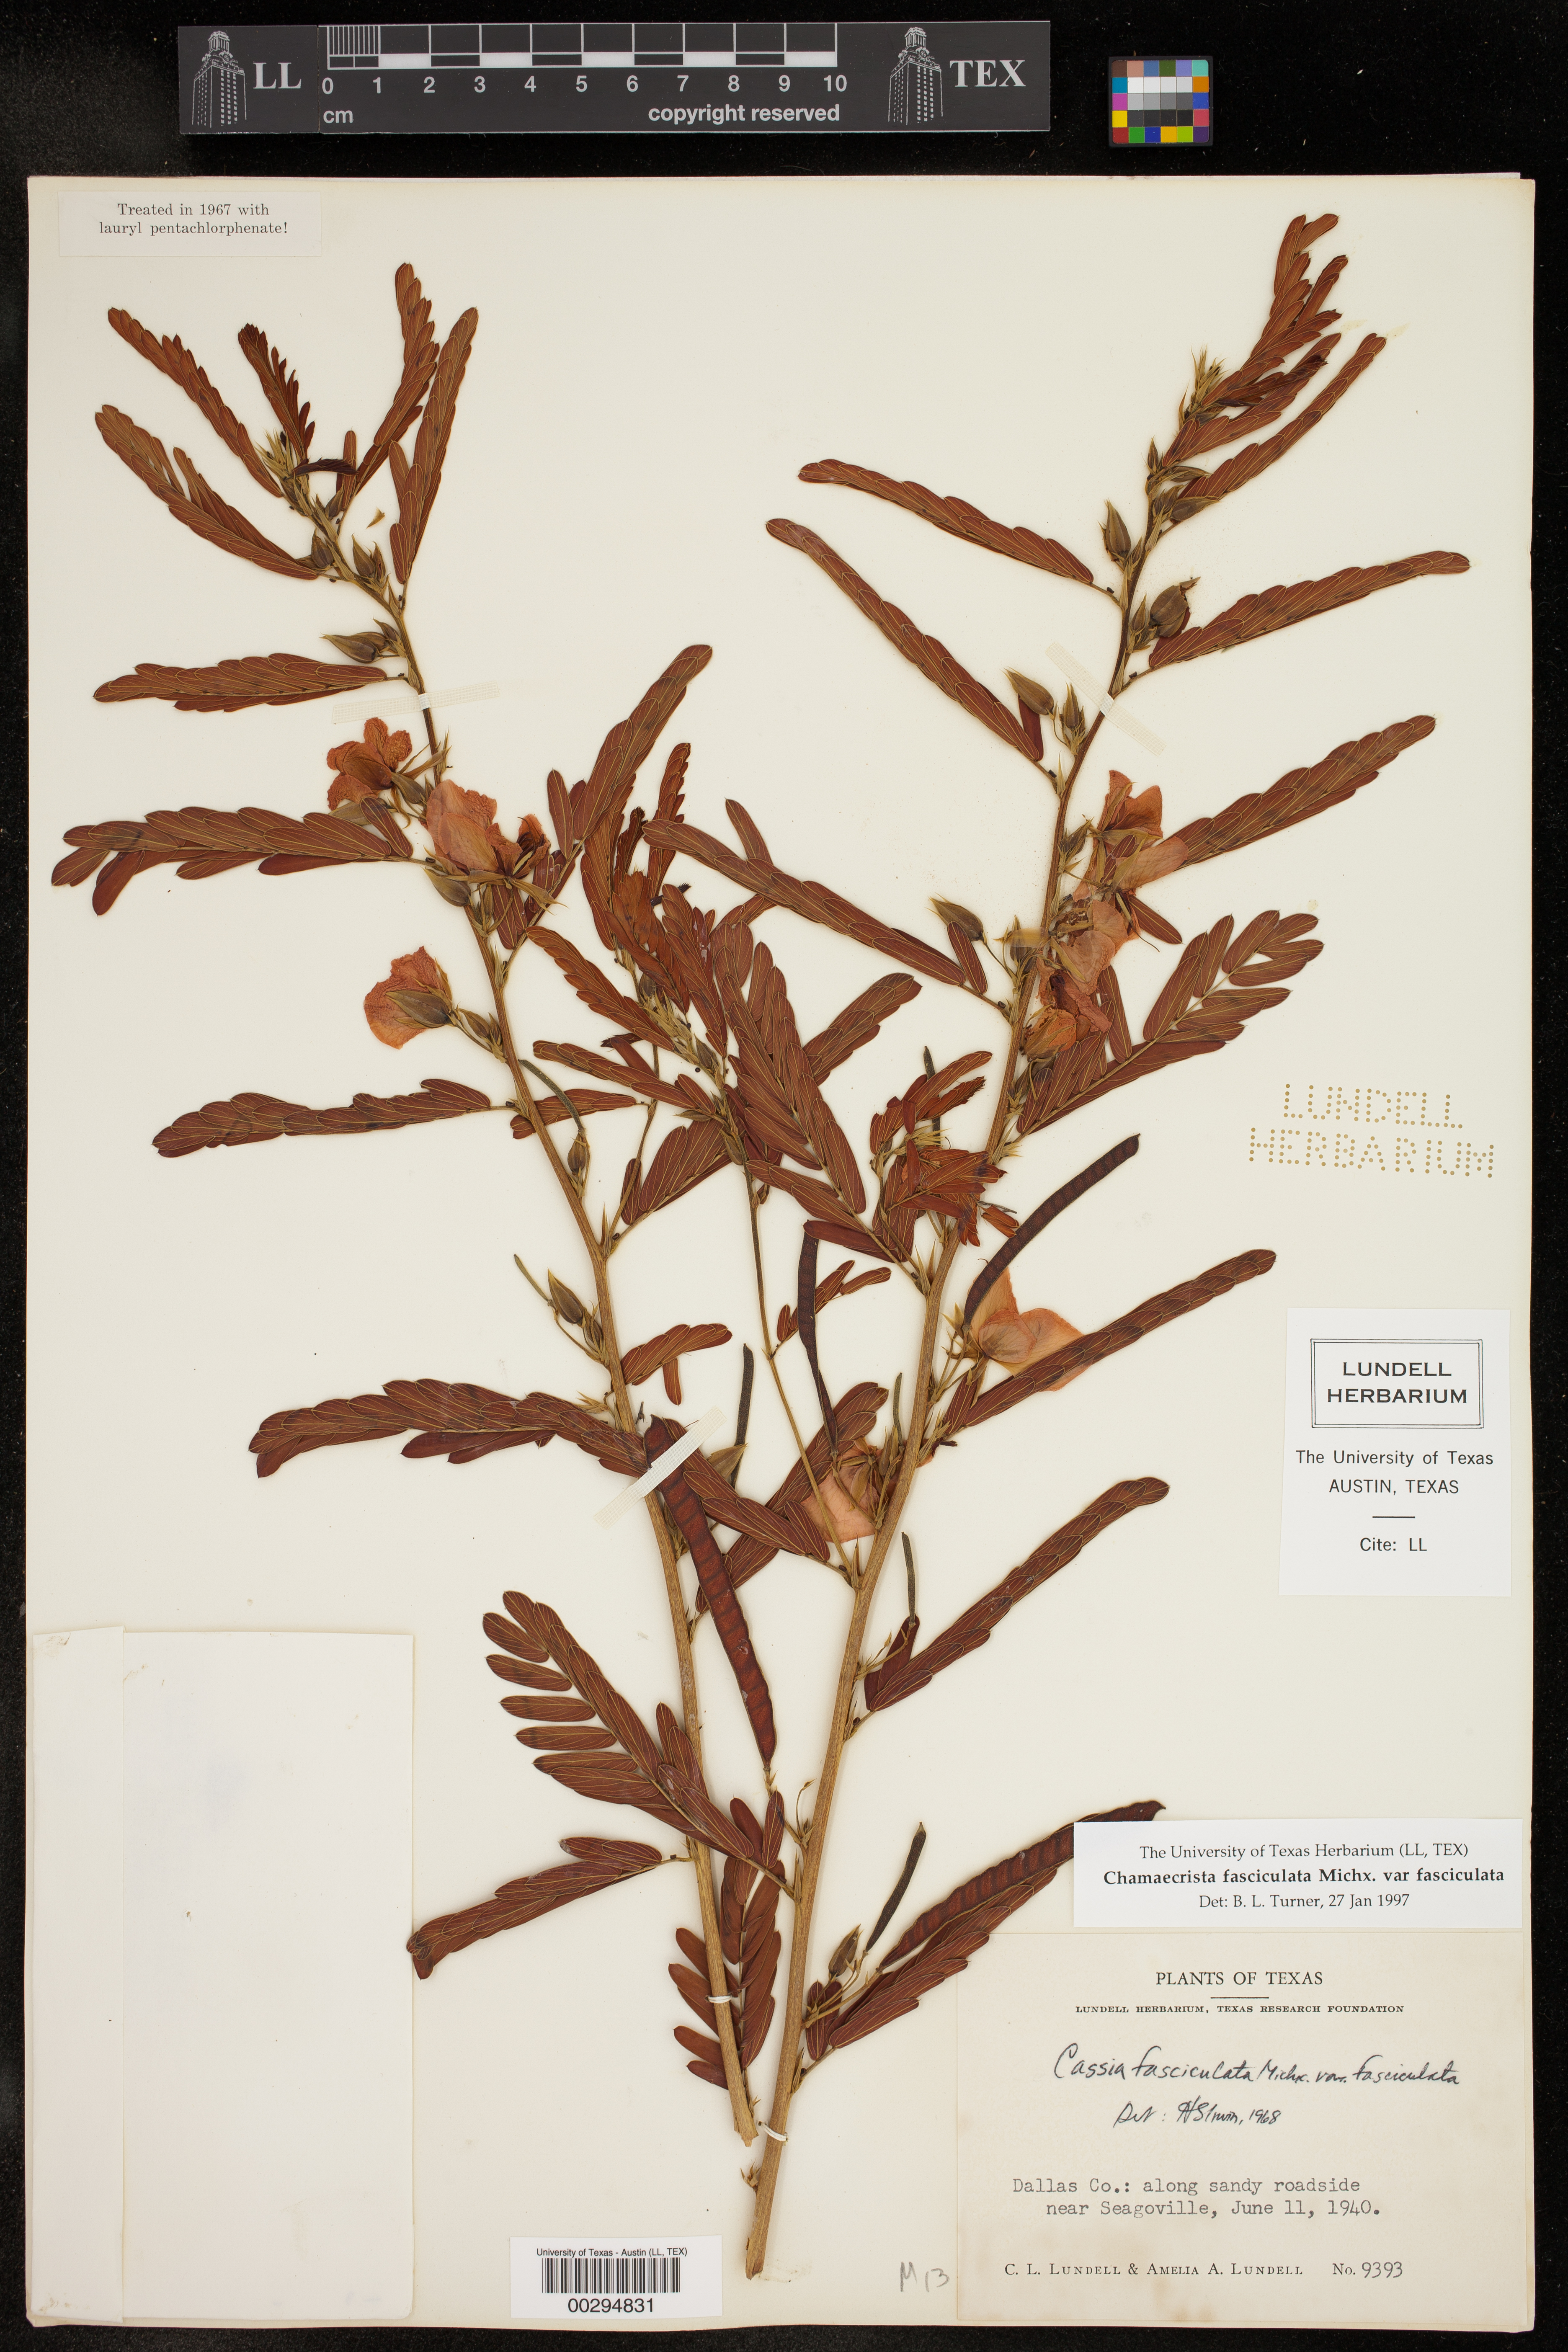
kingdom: Plantae
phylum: Tracheophyta
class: Magnoliopsida
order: Fabales
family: Fabaceae
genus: Chamaecrista
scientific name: Chamaecrista fasciculata
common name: Golden cassia
